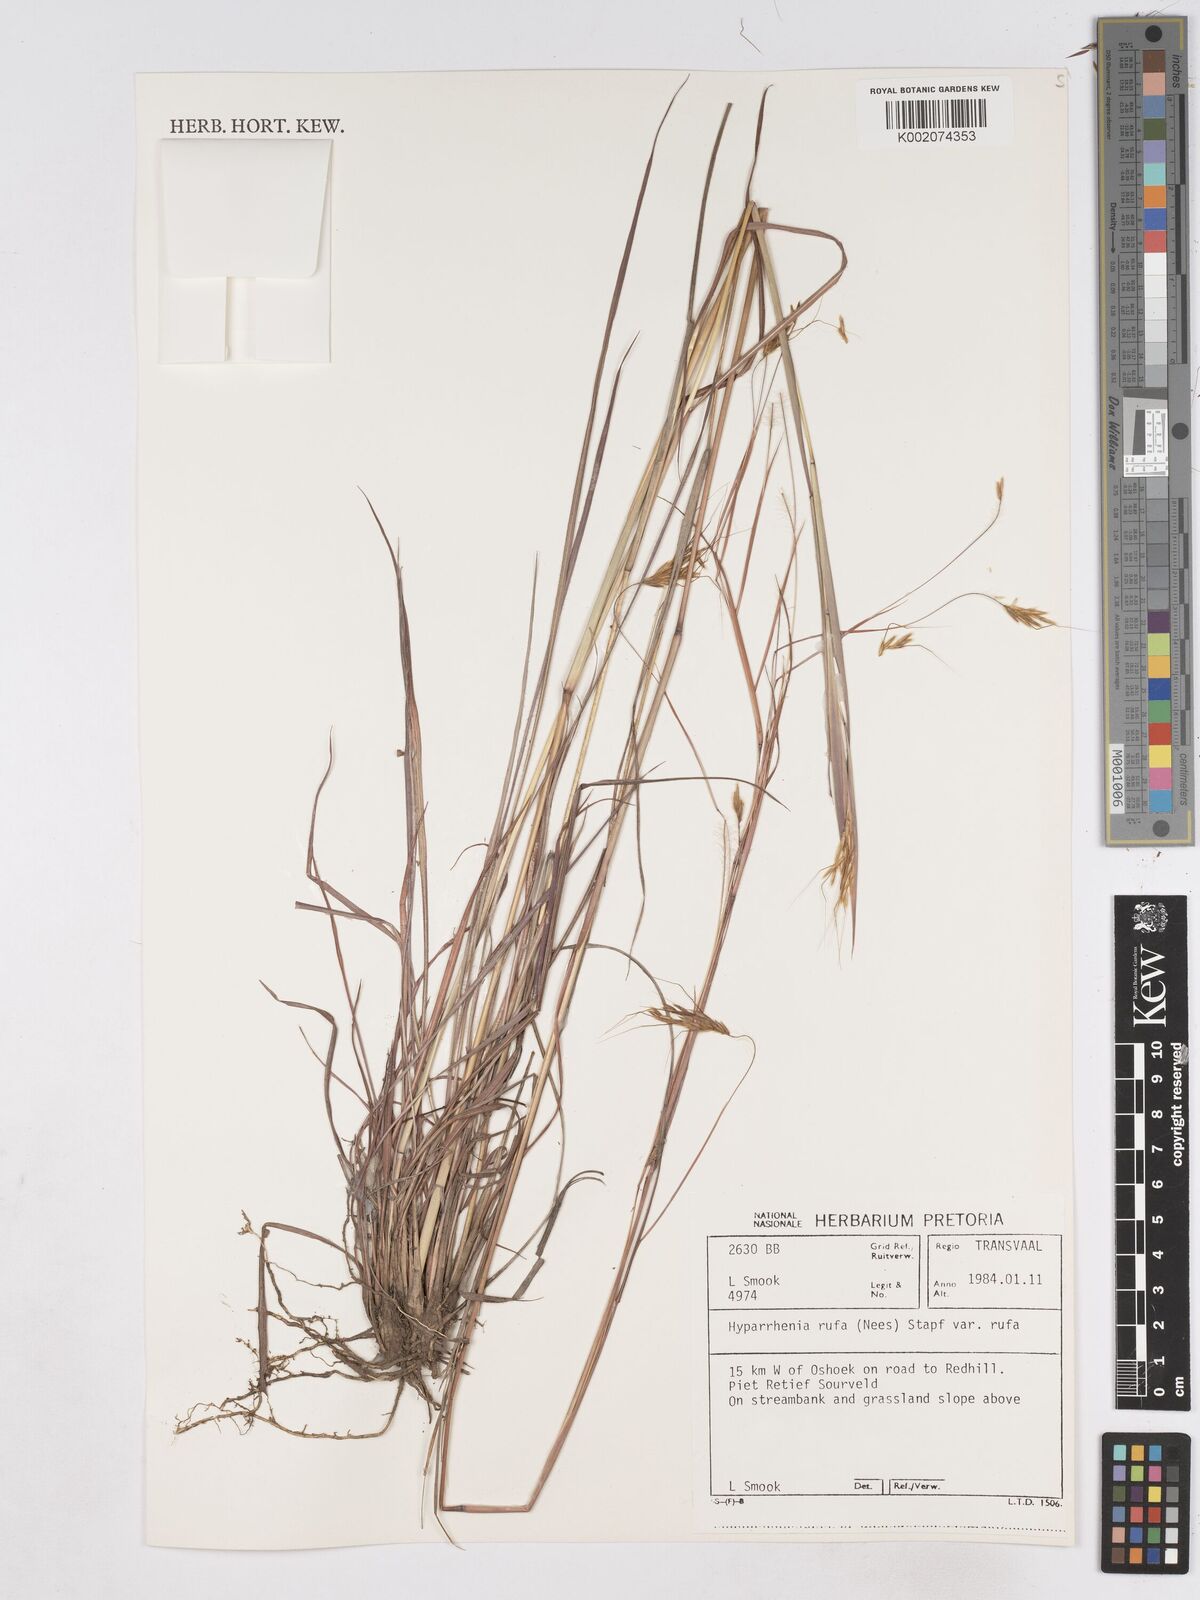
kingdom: Plantae
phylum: Tracheophyta
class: Liliopsida
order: Poales
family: Poaceae
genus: Hyparrhenia
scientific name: Hyparrhenia rufa
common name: Jaraguagrass
